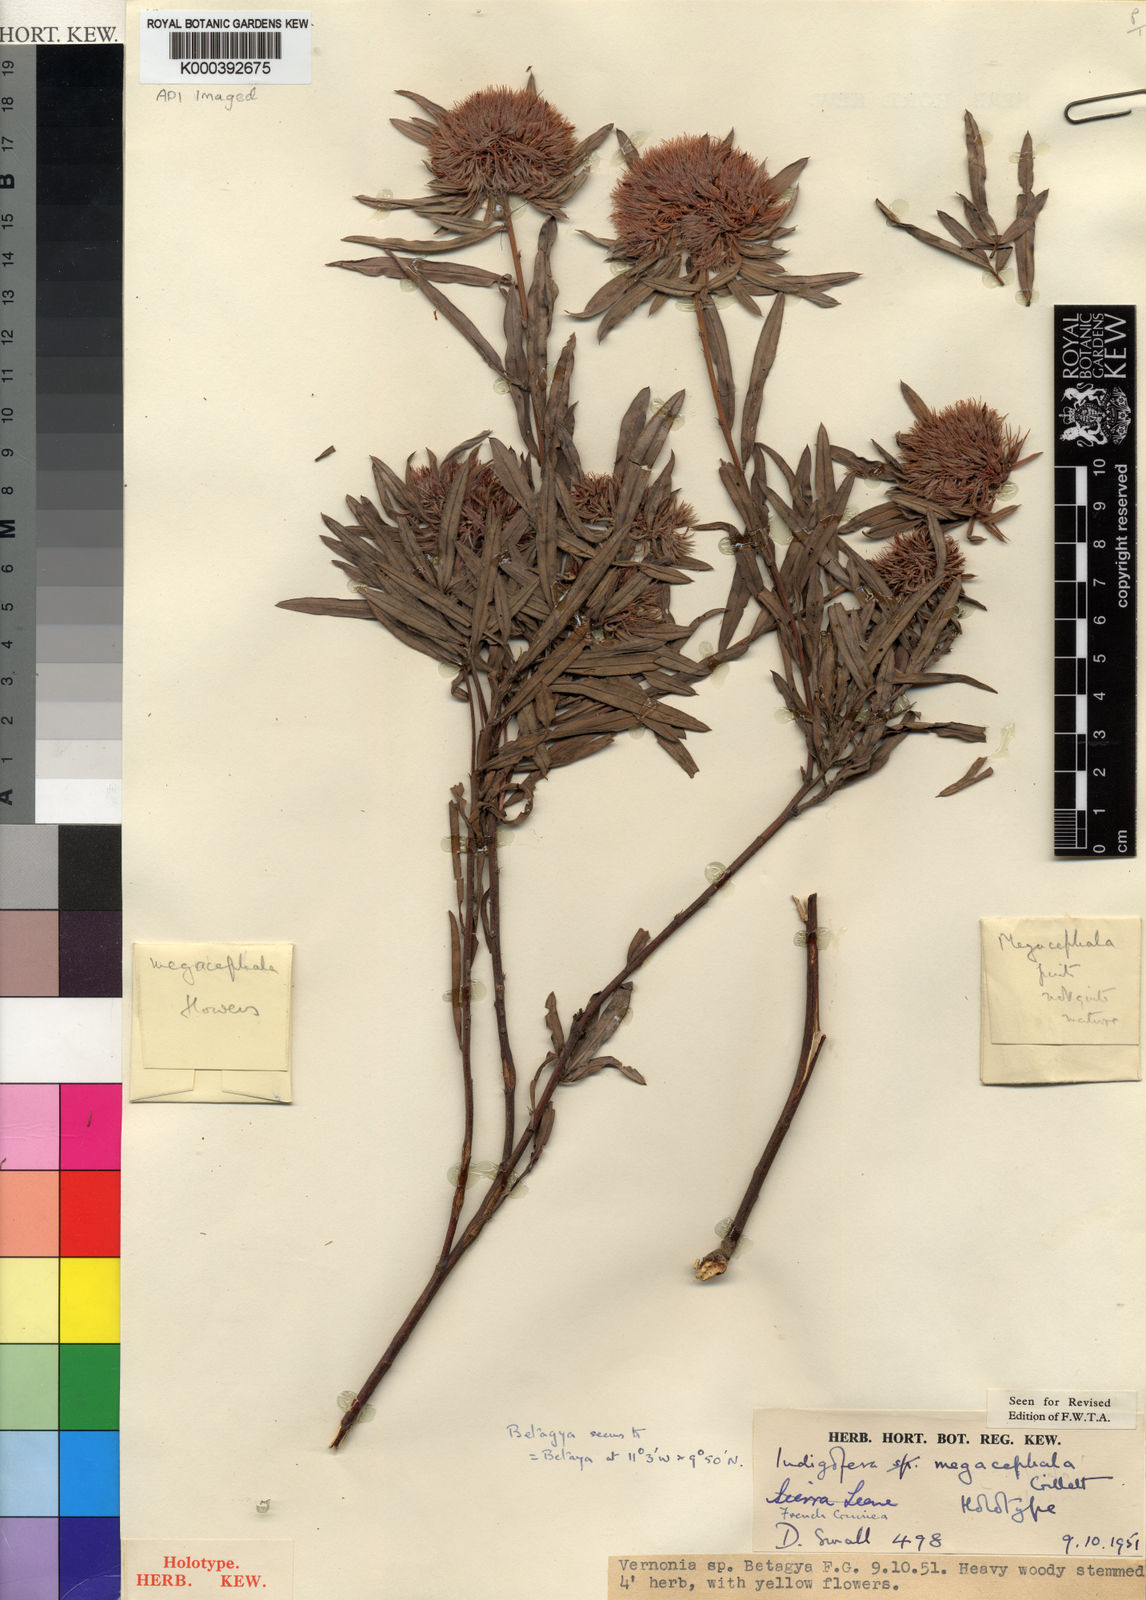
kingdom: Plantae
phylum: Tracheophyta
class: Magnoliopsida
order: Fabales
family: Fabaceae
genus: Indigofera
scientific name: Indigofera megacephala
